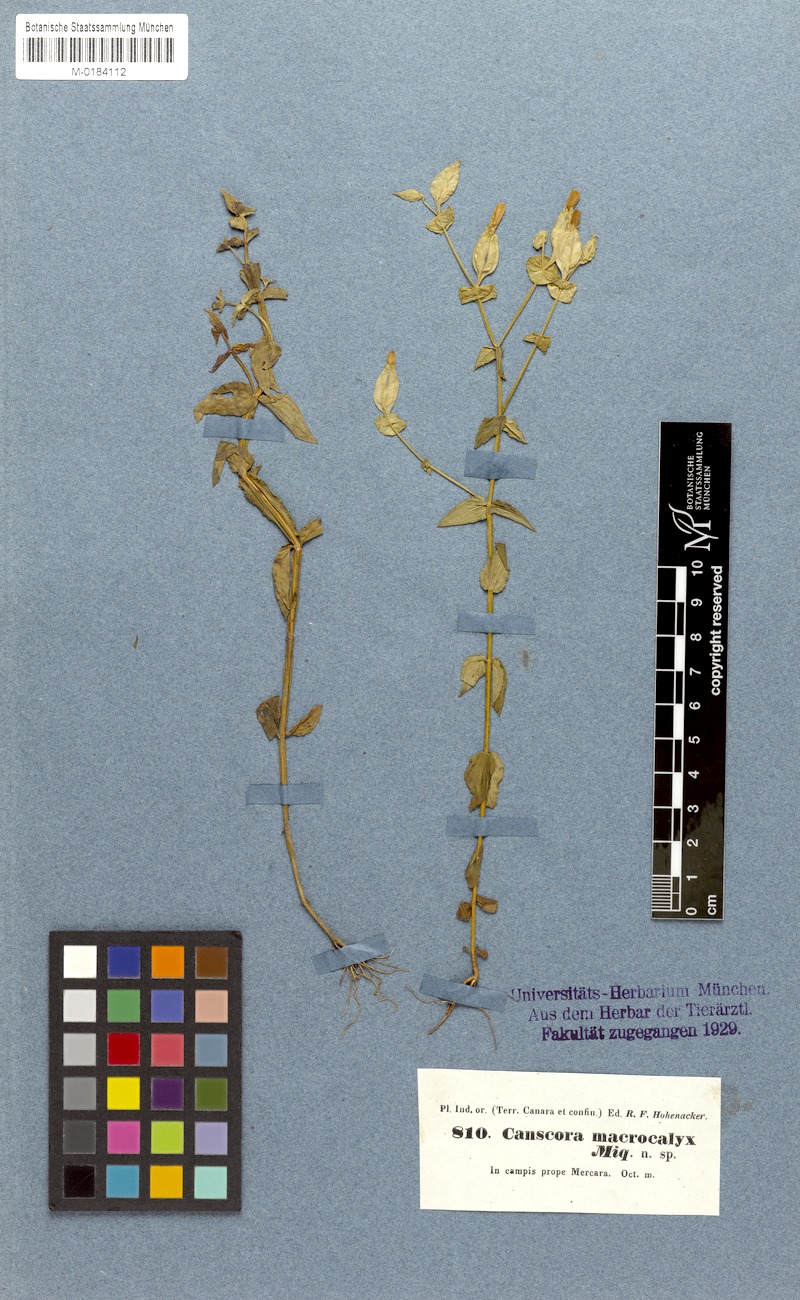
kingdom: Plantae
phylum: Tracheophyta
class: Magnoliopsida
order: Gentianales
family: Gentianaceae
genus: Canscora
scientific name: Canscora perfoliata
